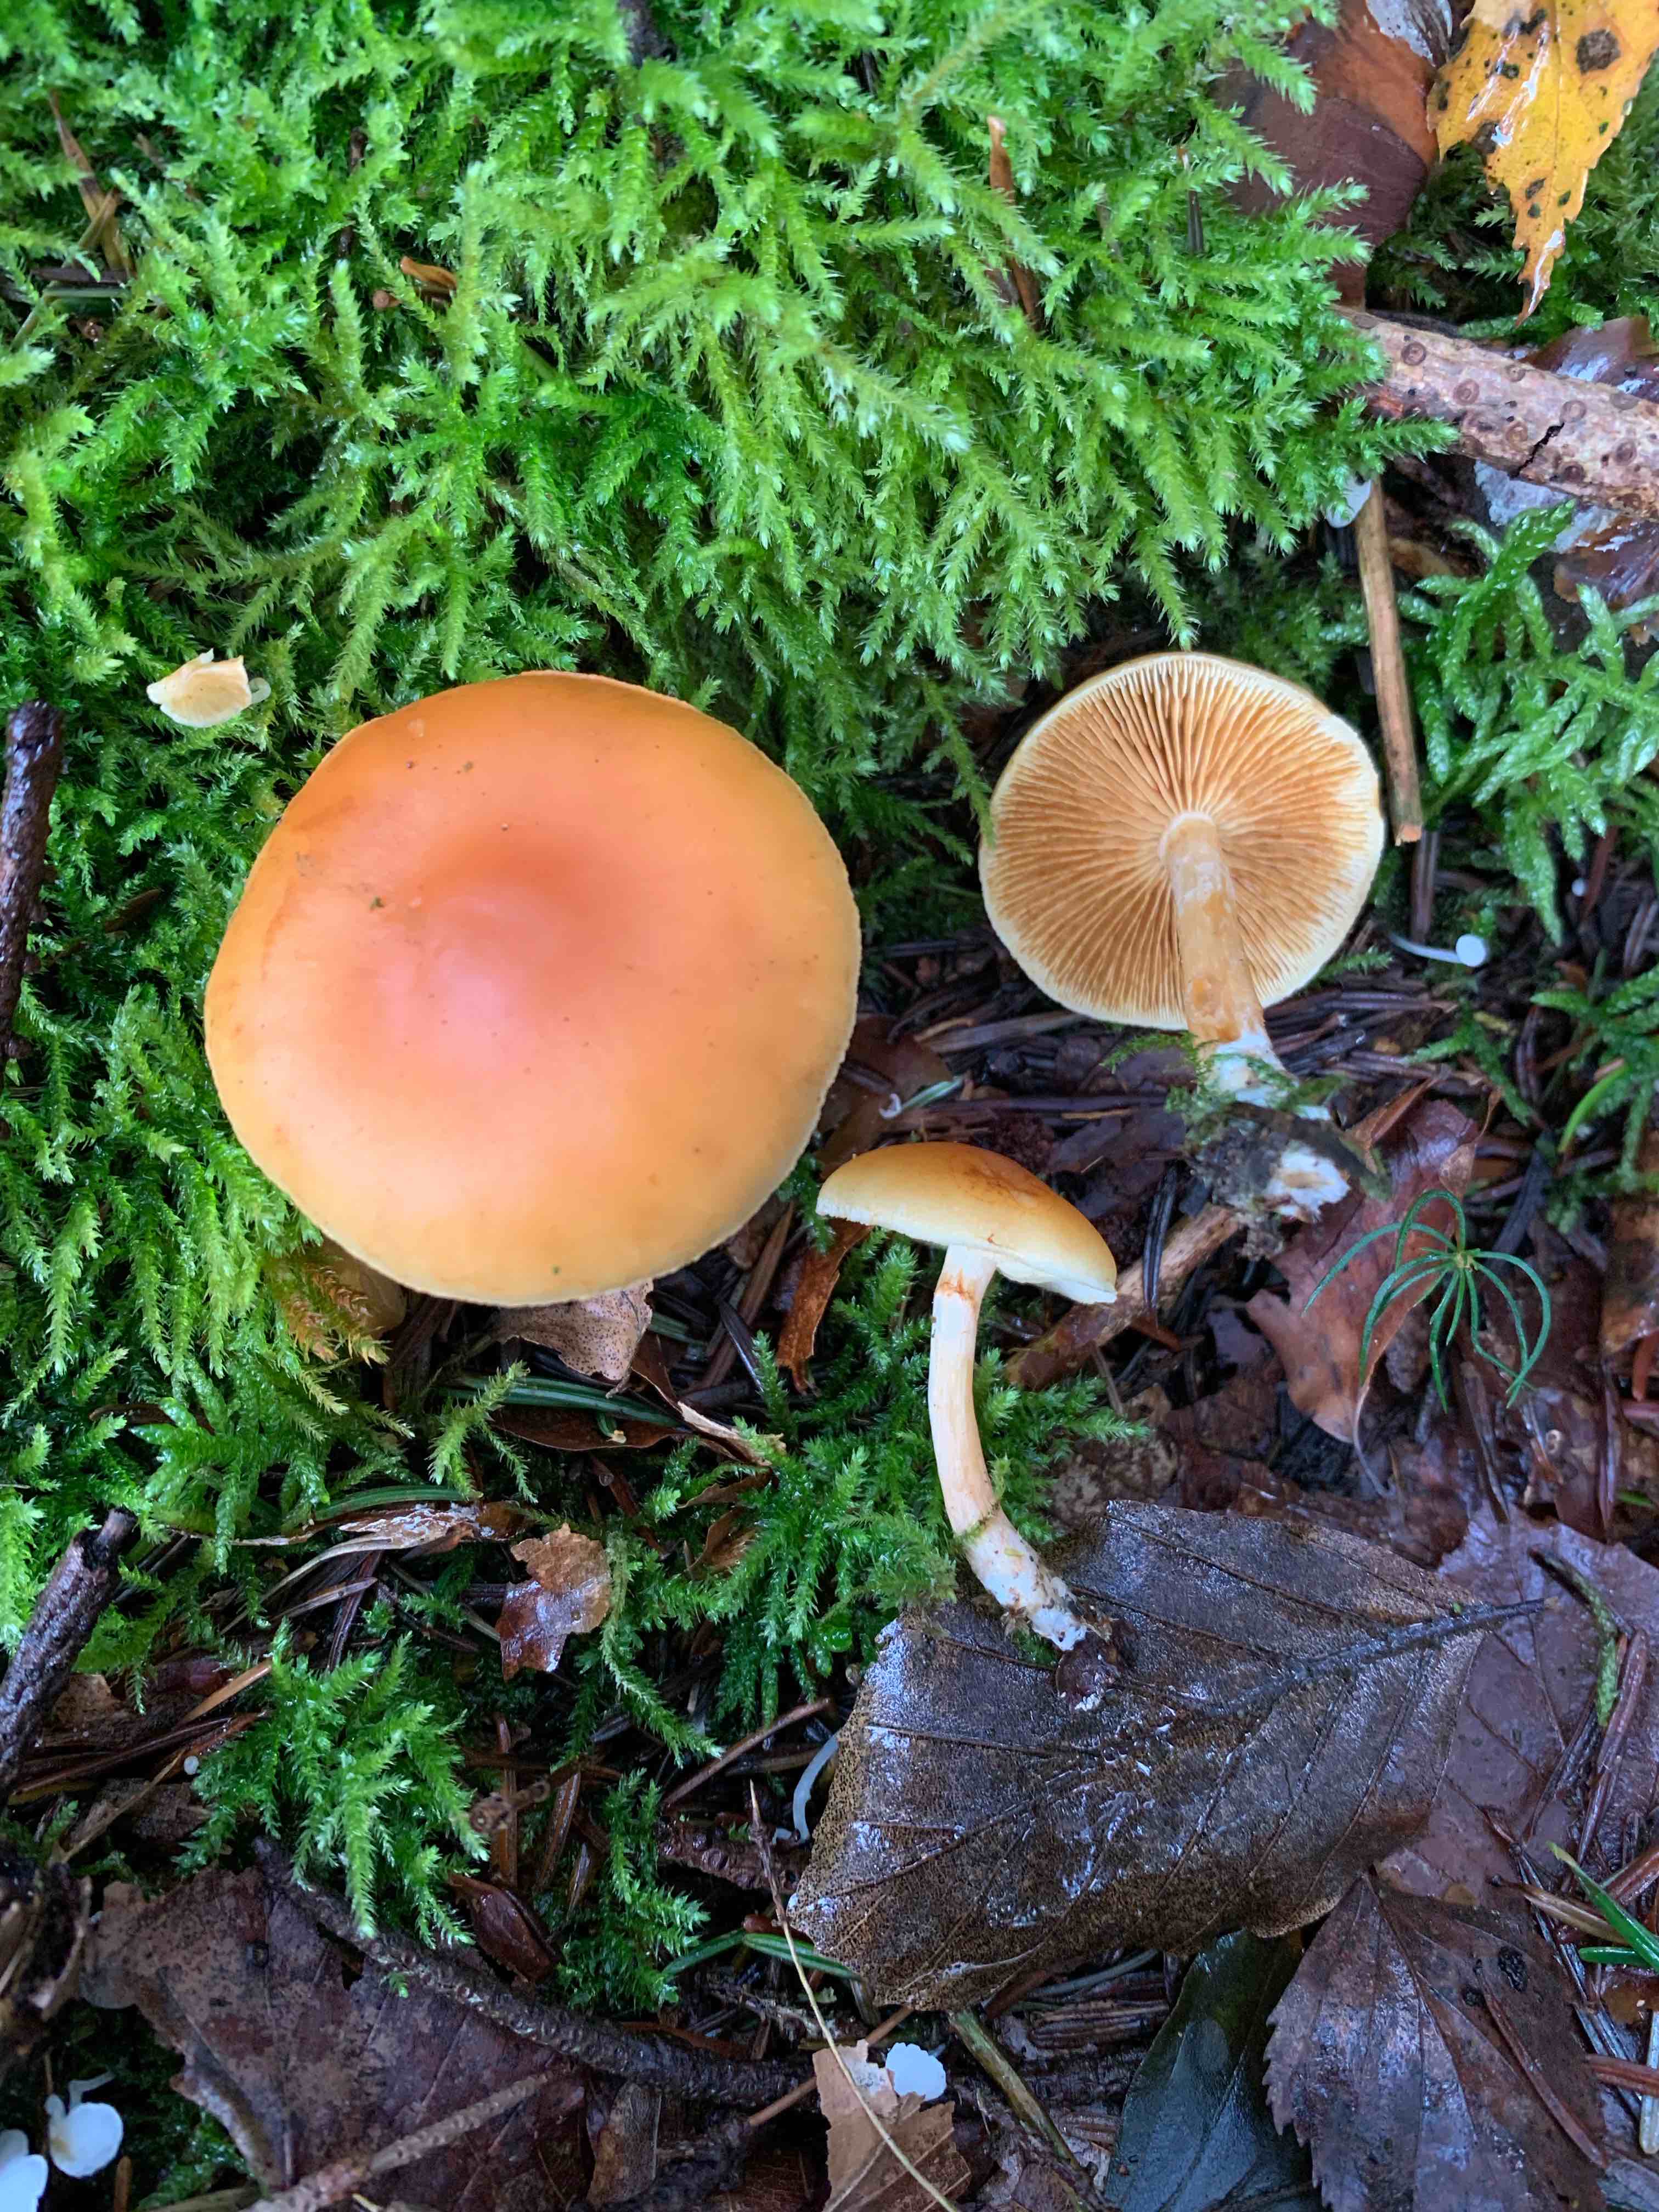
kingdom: Fungi
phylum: Basidiomycota
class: Agaricomycetes
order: Agaricales
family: Hymenogastraceae
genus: Gymnopilus
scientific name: Gymnopilus penetrans
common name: plettet flammehat
